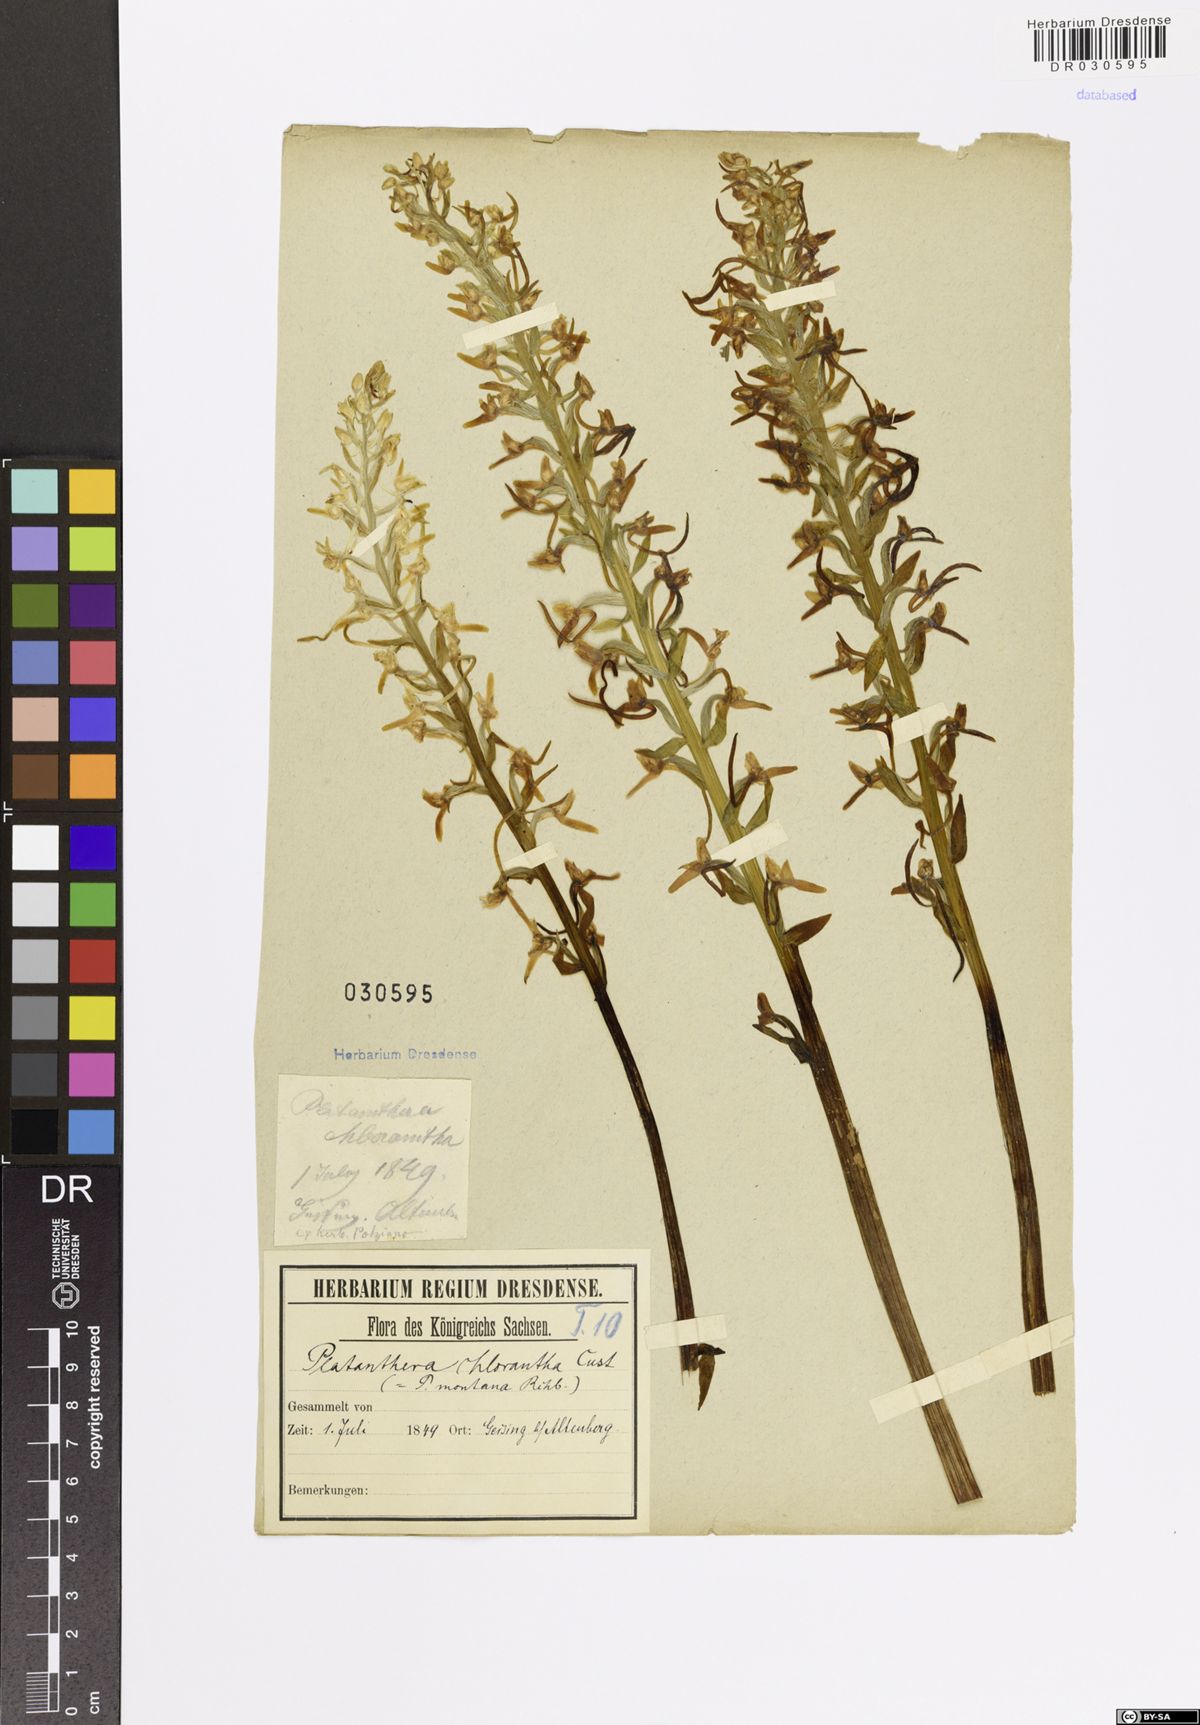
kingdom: Plantae
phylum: Tracheophyta
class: Liliopsida
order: Asparagales
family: Orchidaceae
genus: Platanthera
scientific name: Platanthera chlorantha
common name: Greater butterfly-orchid
